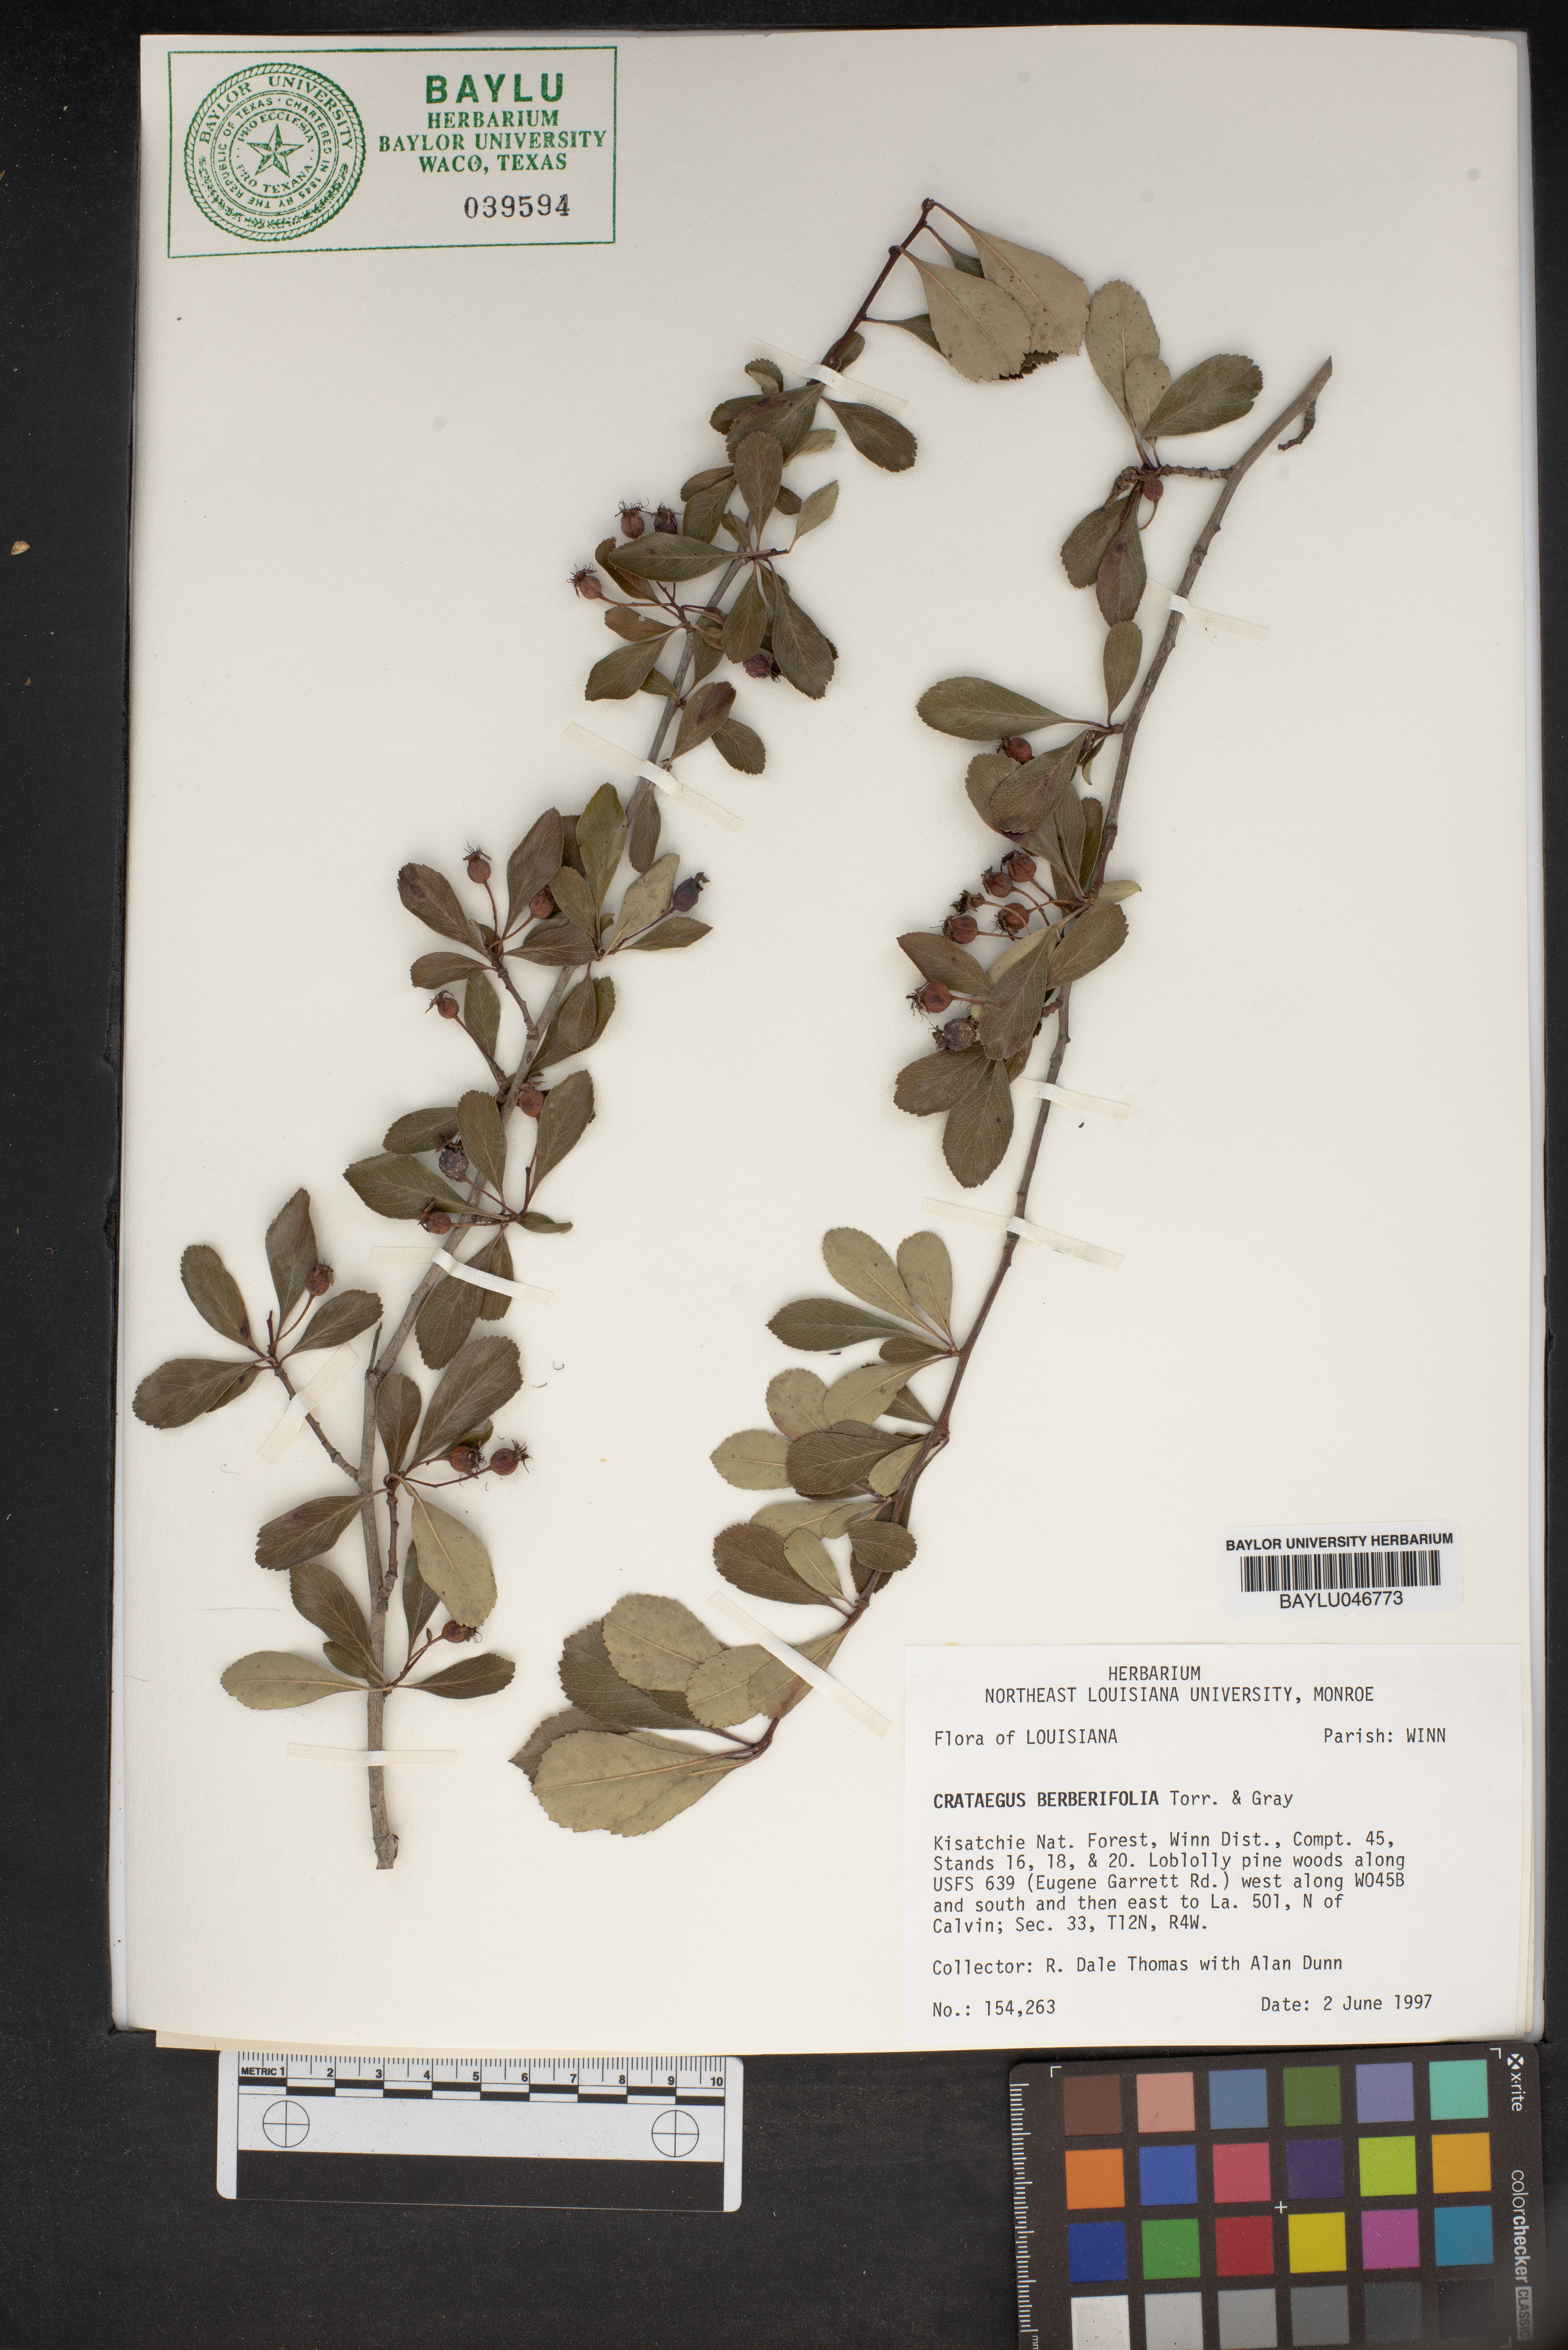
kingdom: Plantae
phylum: Tracheophyta
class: Magnoliopsida
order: Rosales
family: Rosaceae
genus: Crataegus
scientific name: Crataegus berberifolia
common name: Barberry hawthorn
